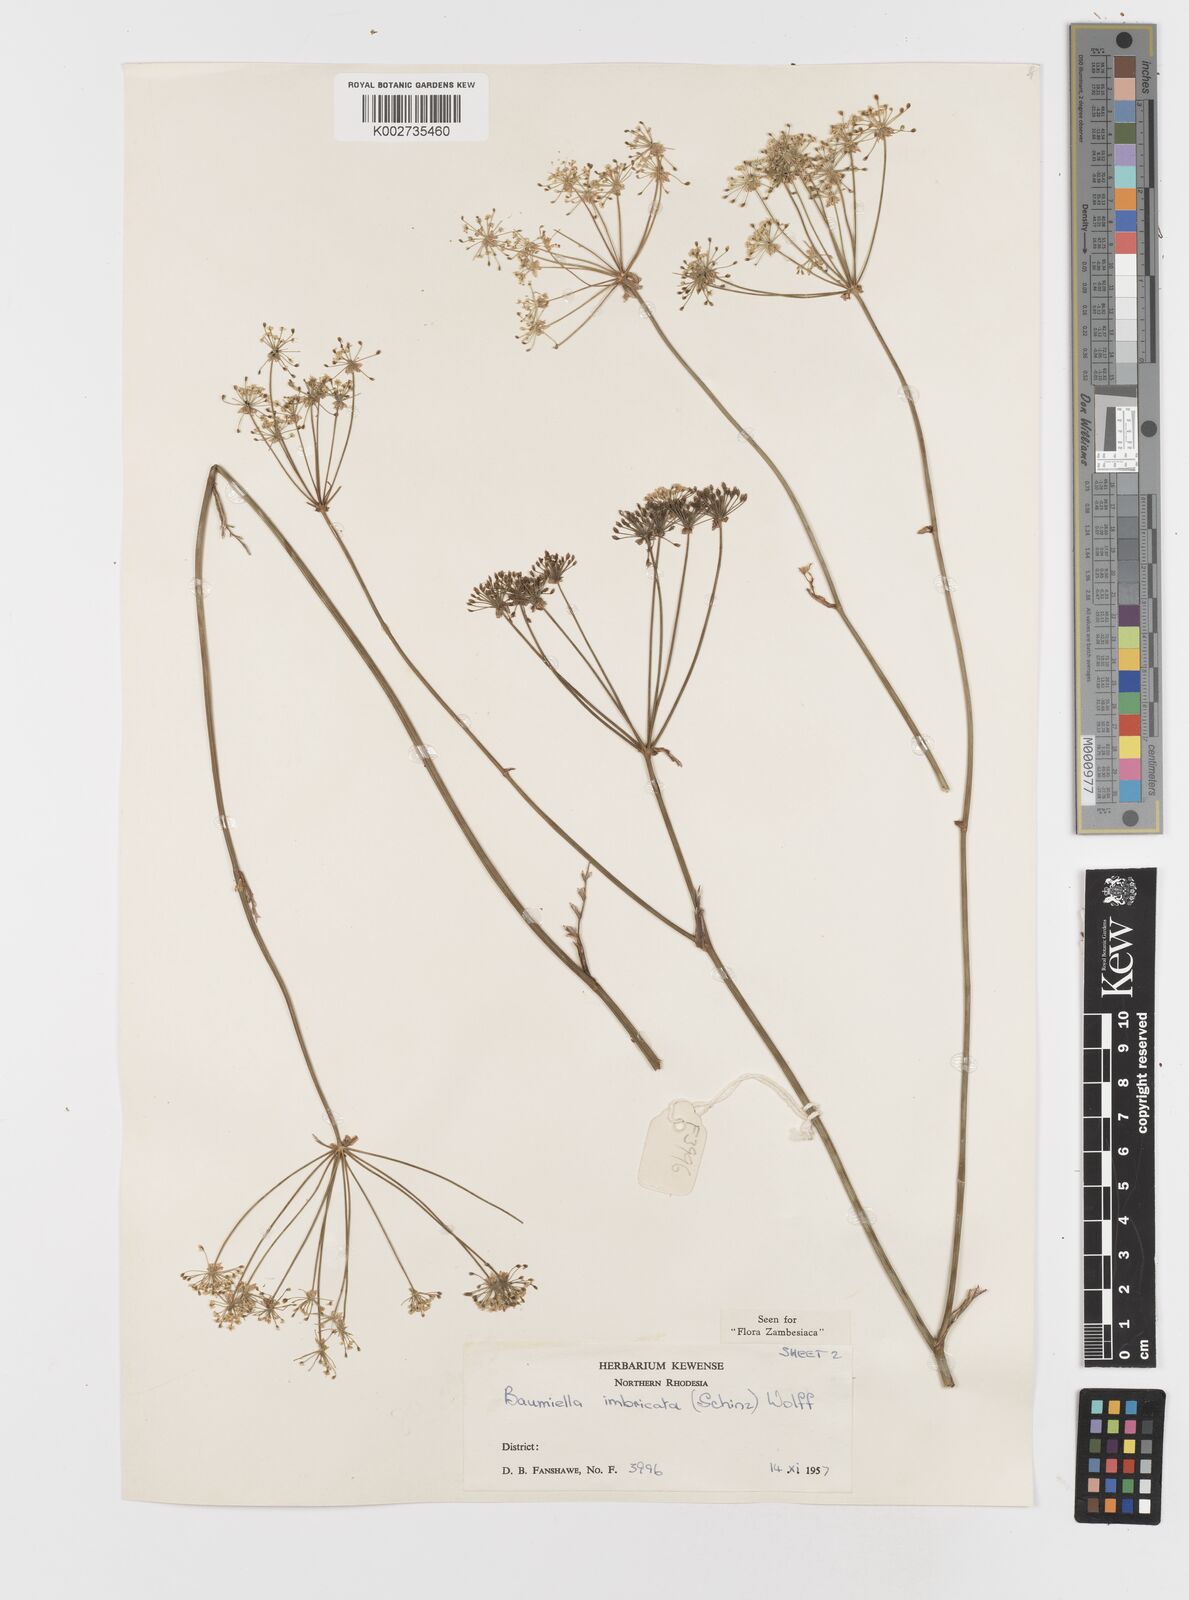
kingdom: Plantae
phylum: Tracheophyta
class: Magnoliopsida
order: Apiales
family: Apiaceae
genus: Berula
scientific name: Berula imbricata
